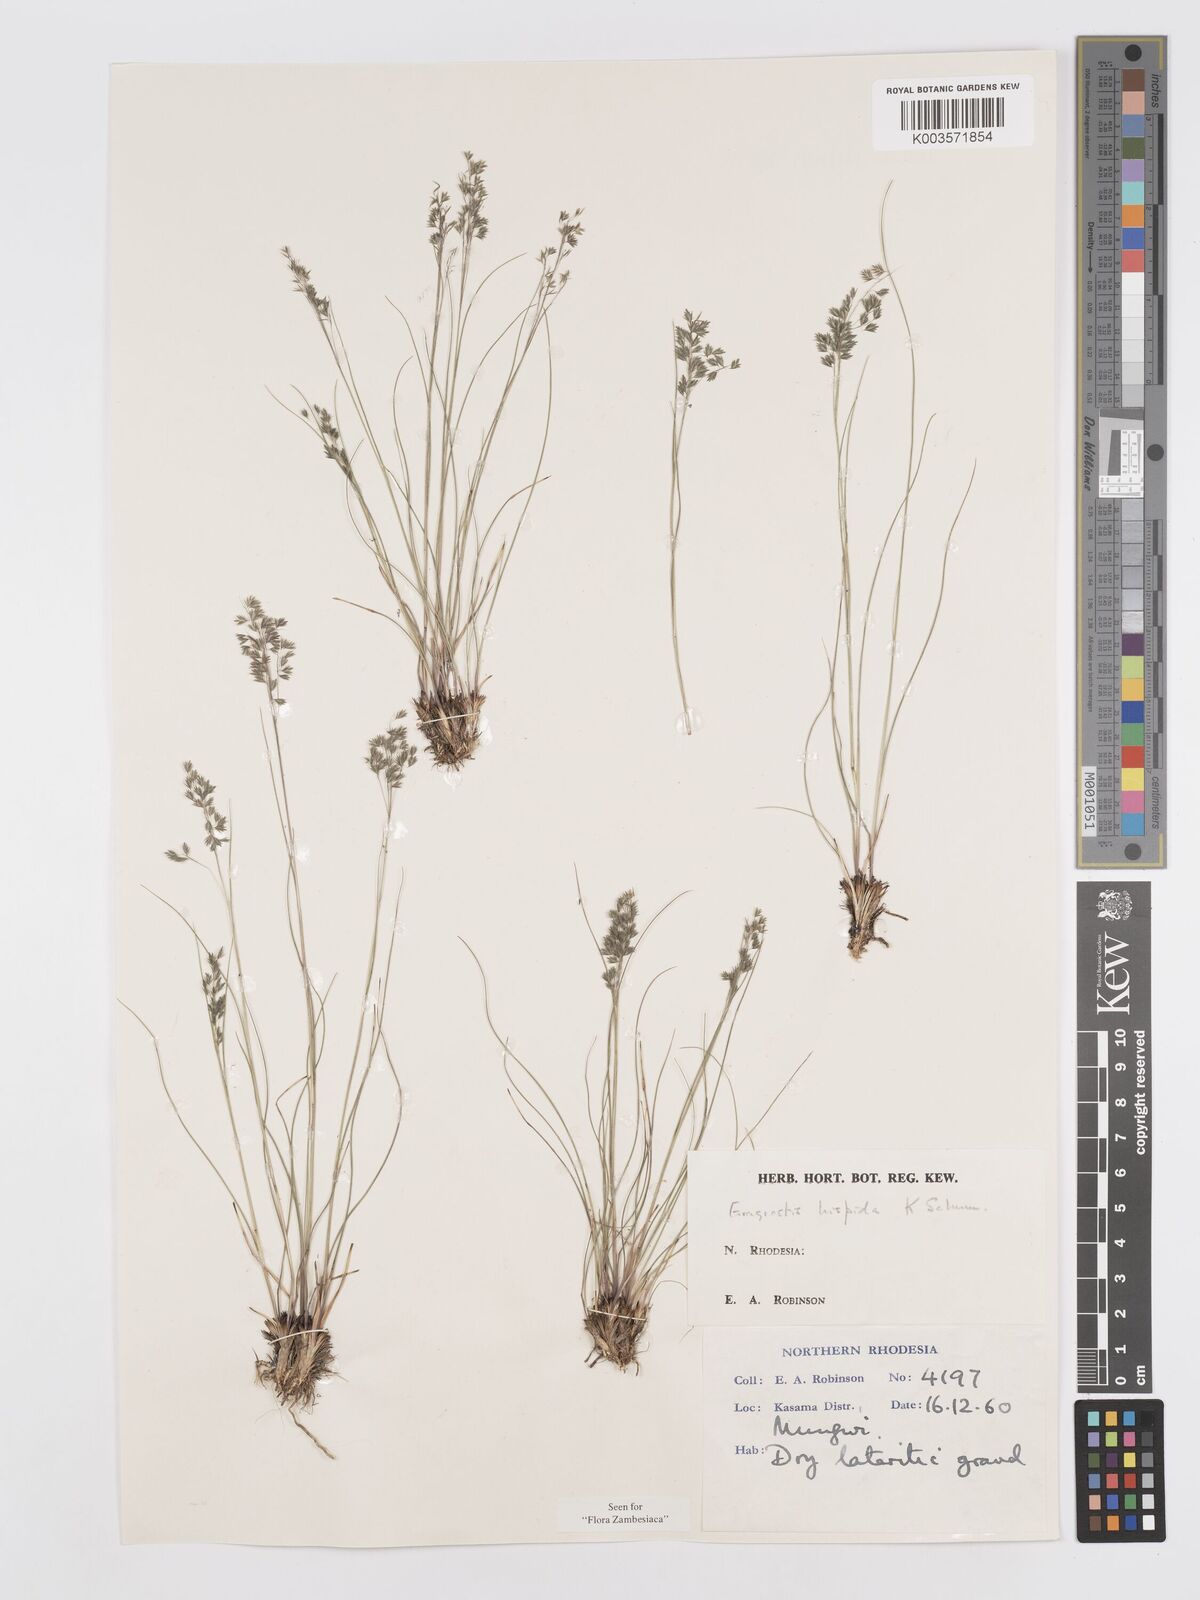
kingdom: Plantae
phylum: Tracheophyta
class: Liliopsida
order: Poales
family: Poaceae
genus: Eragrostis
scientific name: Eragrostis hispida
